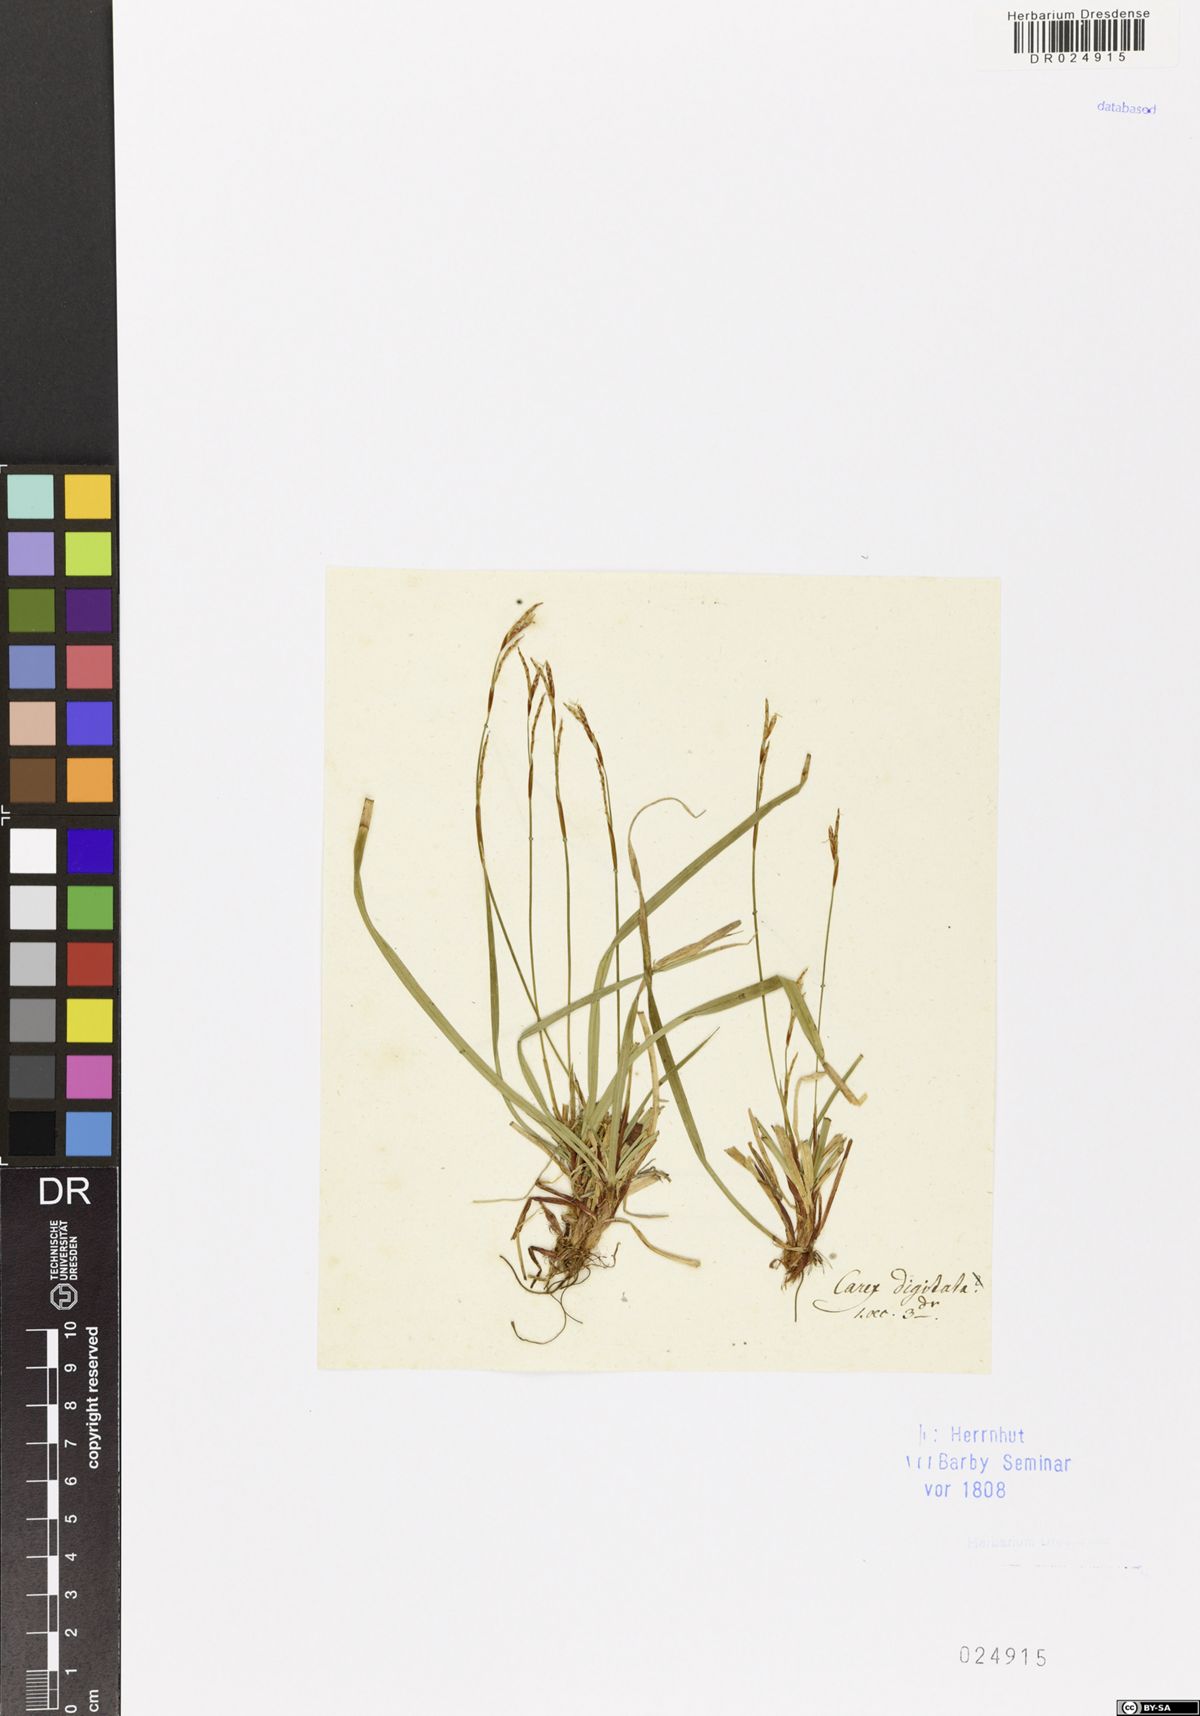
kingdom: Plantae
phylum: Tracheophyta
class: Liliopsida
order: Poales
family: Cyperaceae
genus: Carex
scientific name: Carex digitata
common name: Fingered sedge
